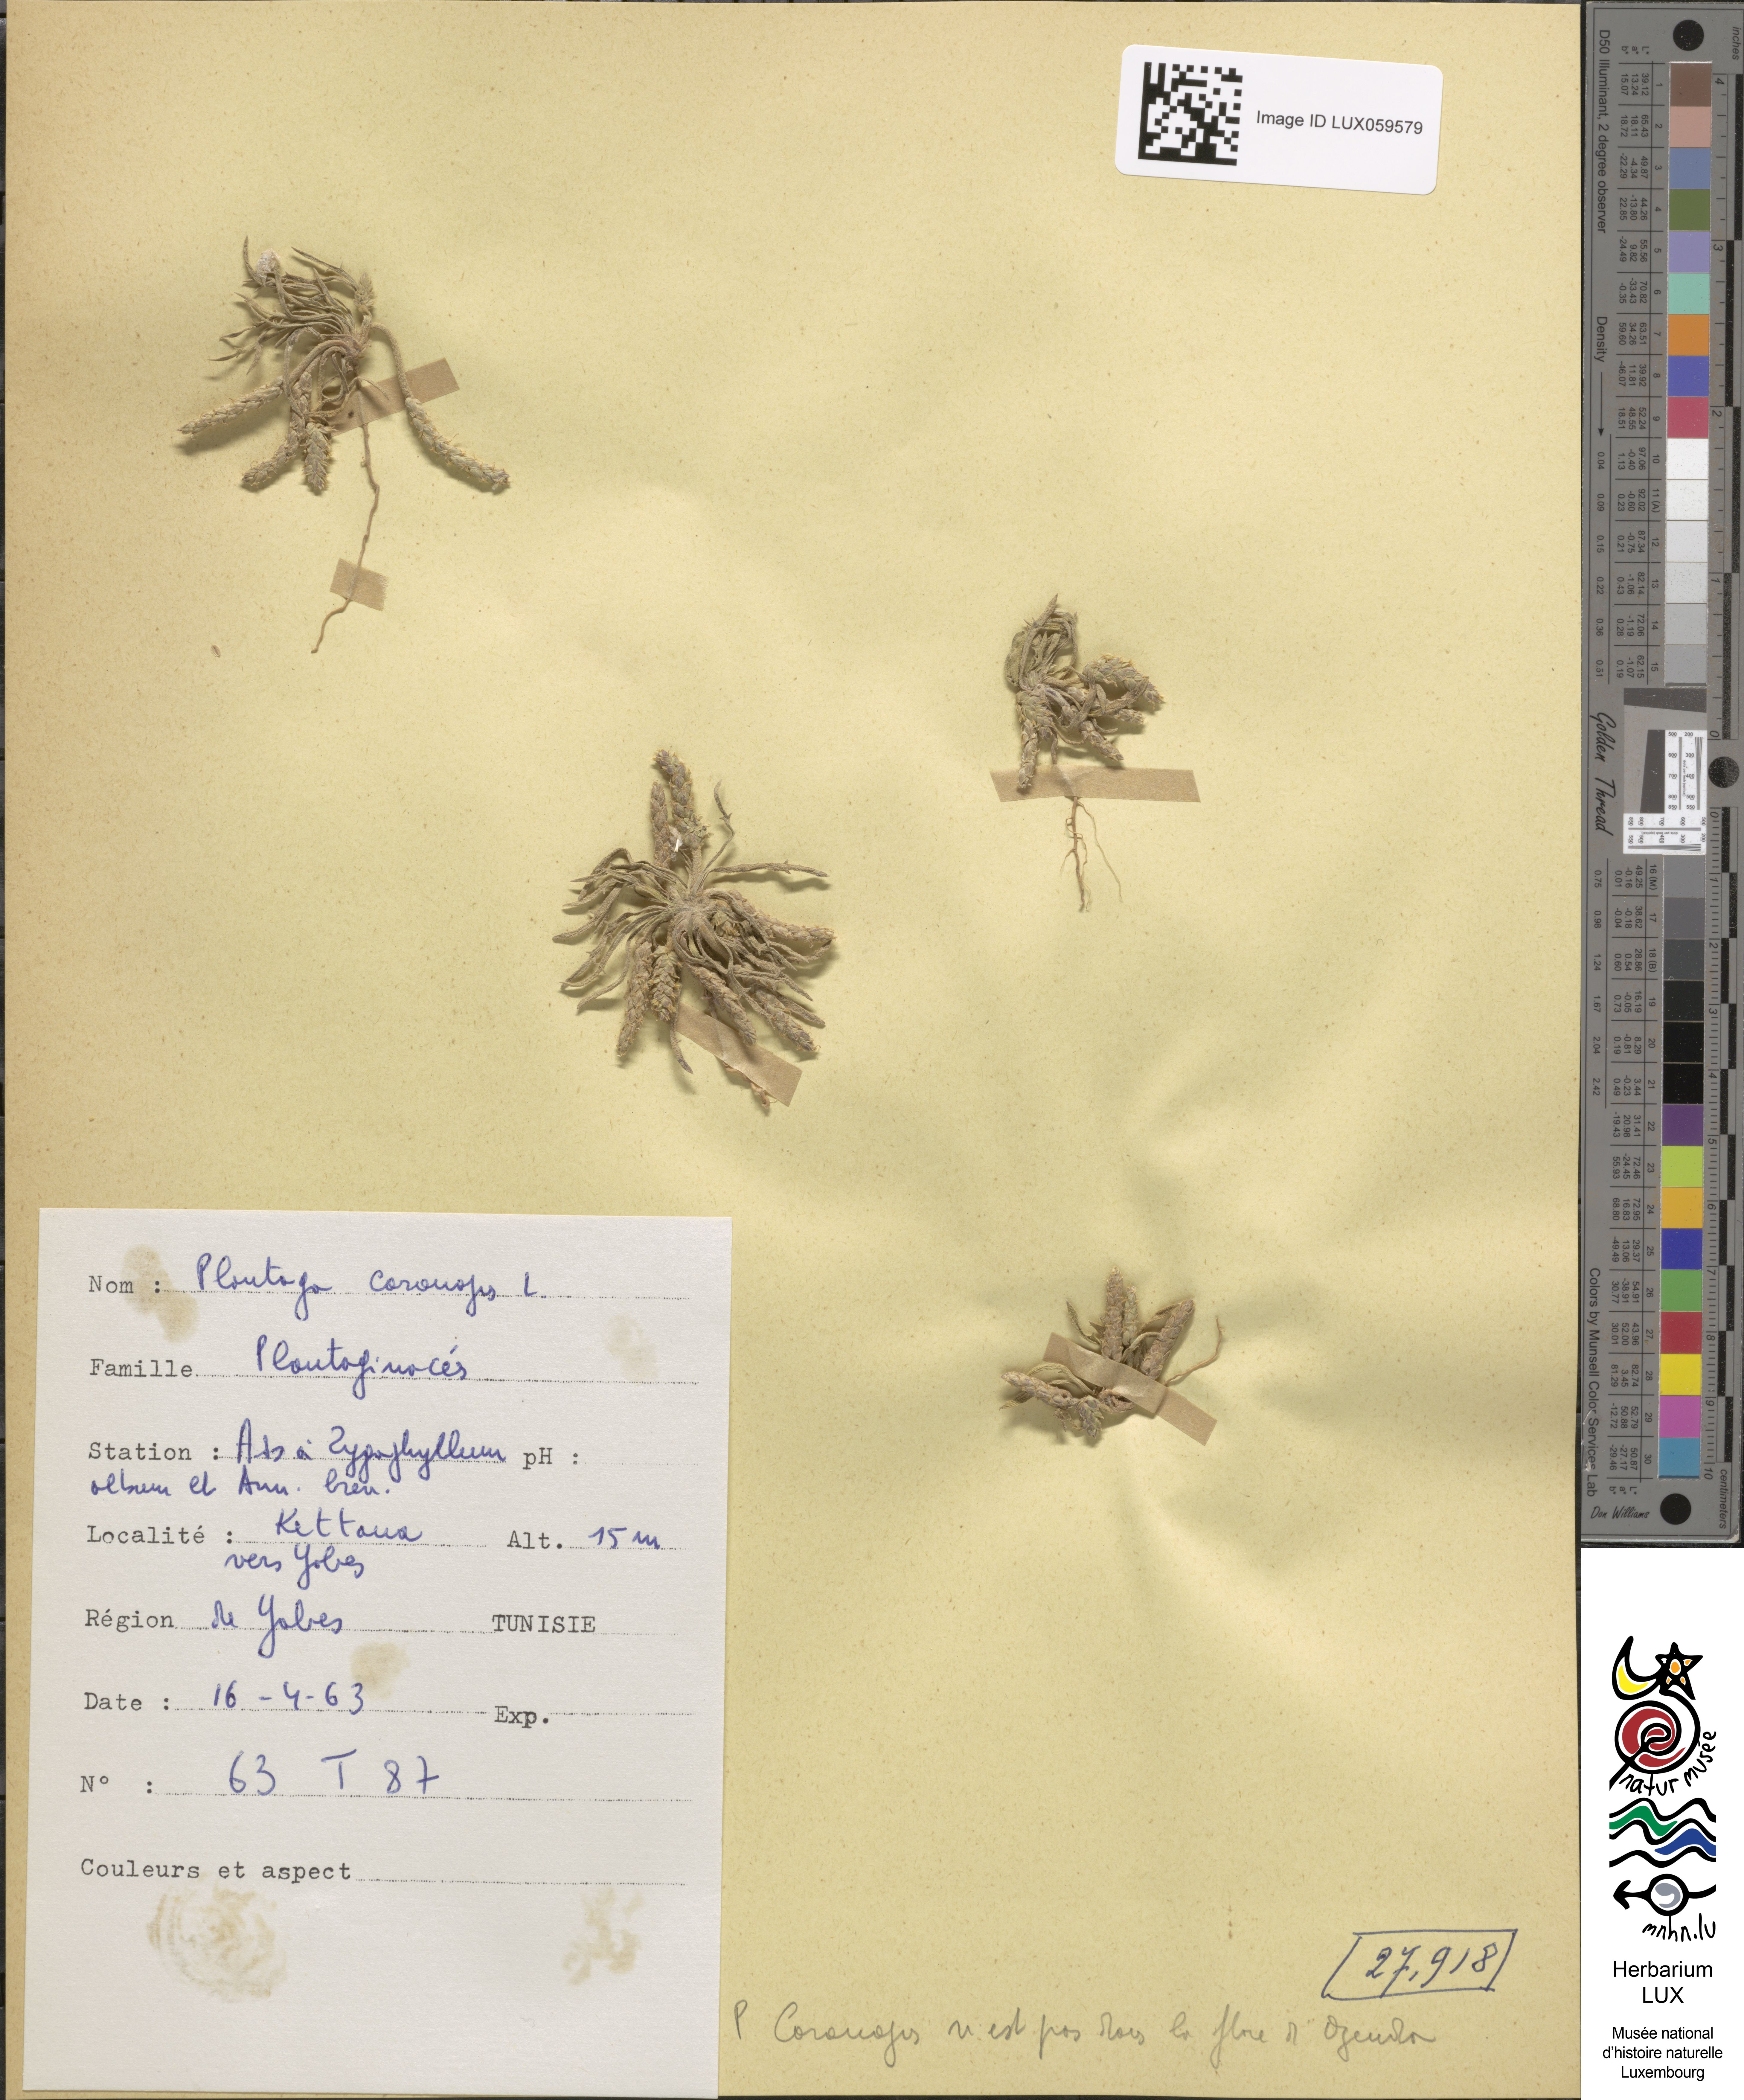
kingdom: Plantae
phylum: Tracheophyta
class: Magnoliopsida
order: Lamiales
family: Plantaginaceae
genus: Plantago
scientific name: Plantago coronopus
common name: Buck's-horn plantain
